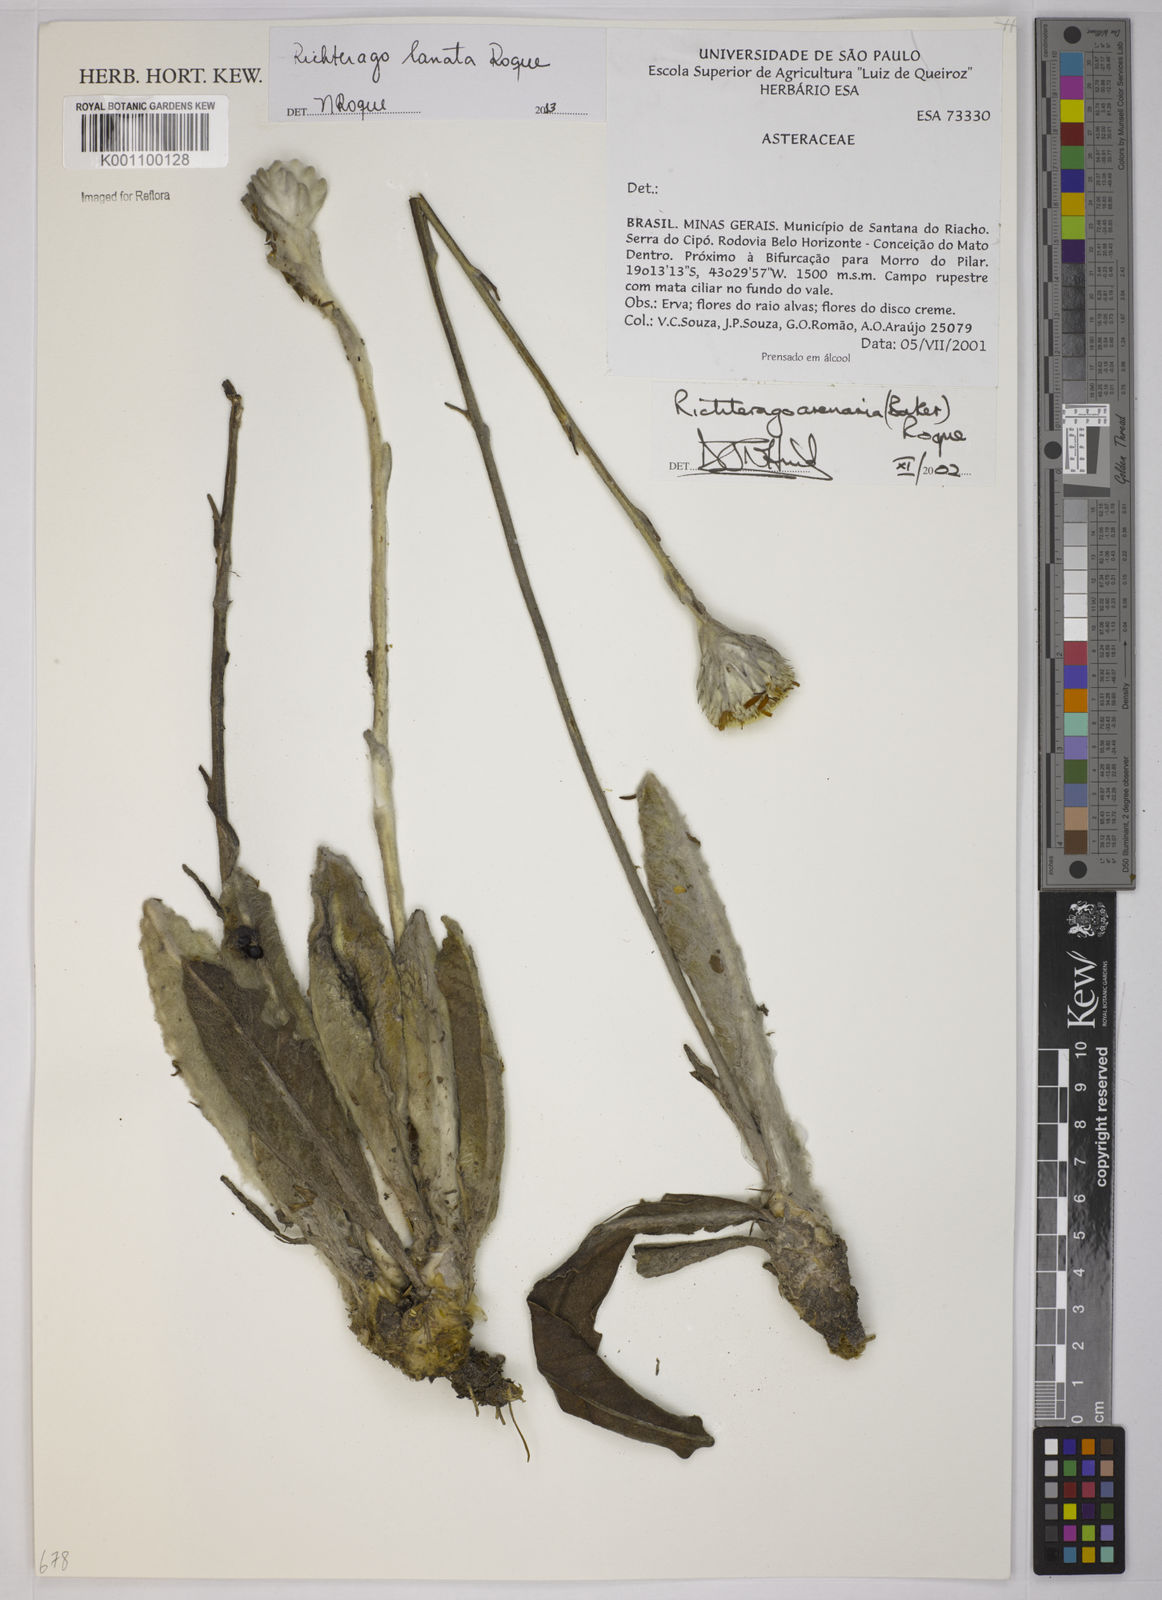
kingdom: Plantae
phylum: Tracheophyta
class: Magnoliopsida
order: Asterales
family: Asteraceae
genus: Richterago
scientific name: Richterago lanata
